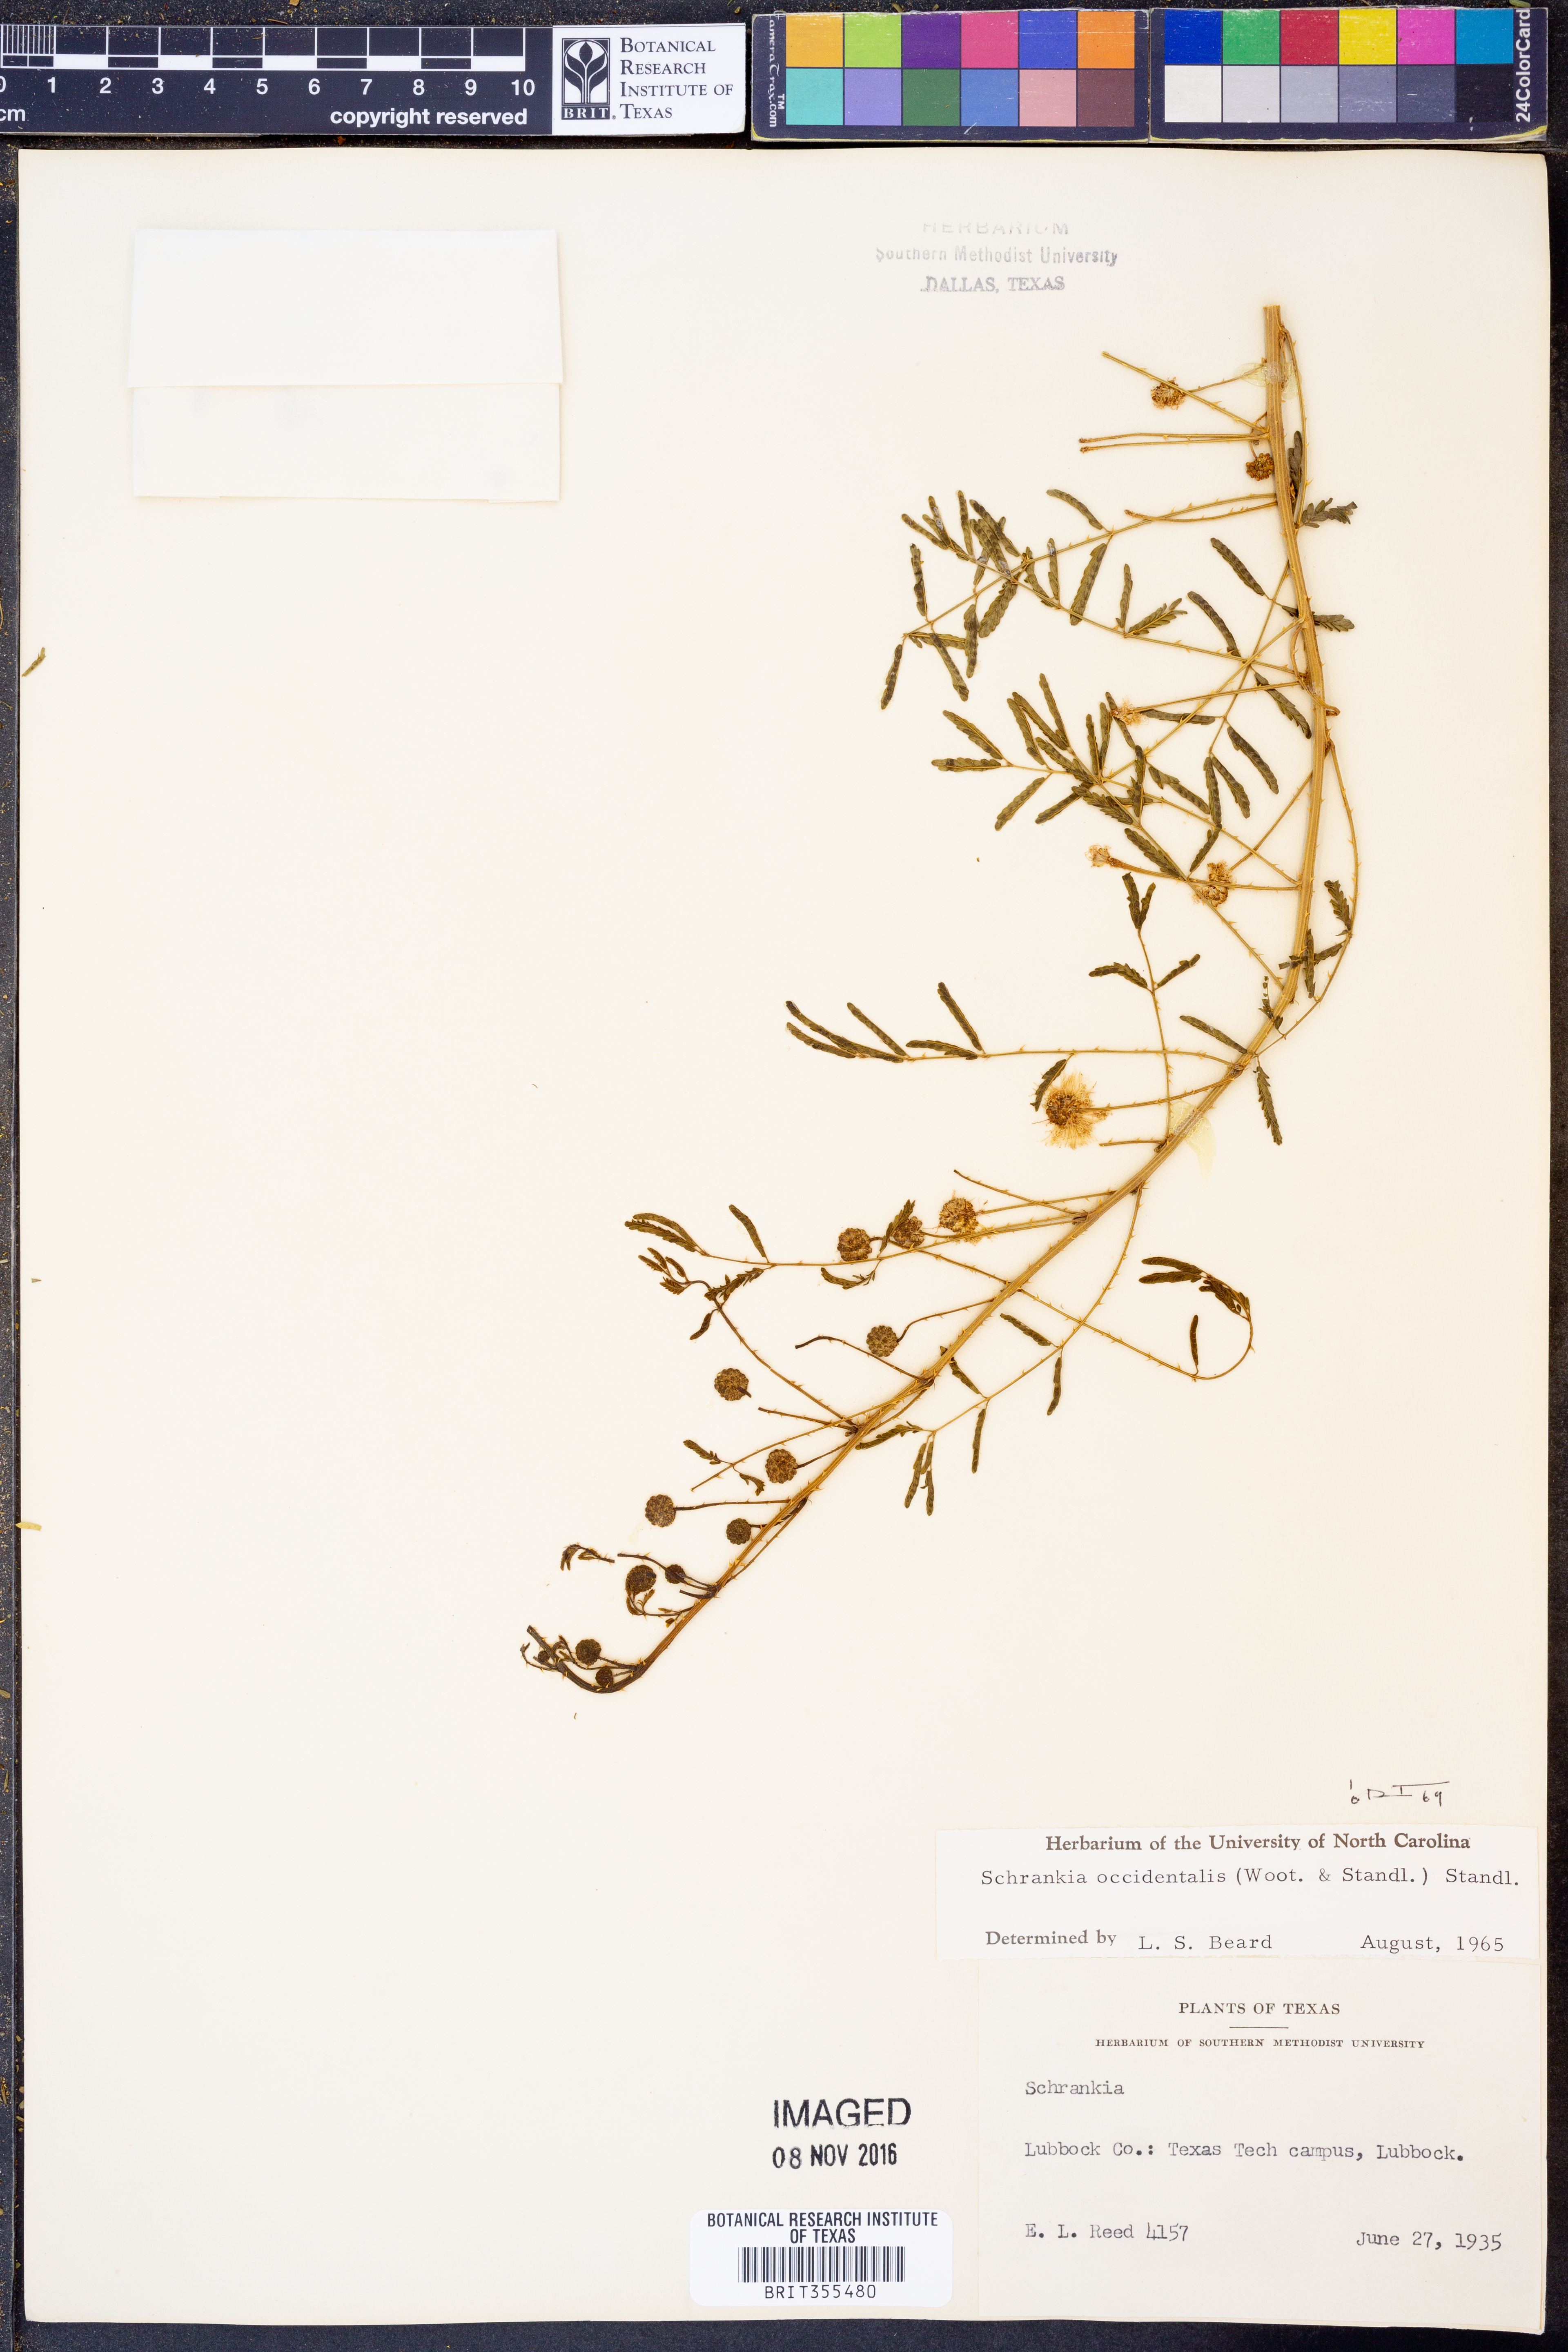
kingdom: Plantae
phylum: Tracheophyta
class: Magnoliopsida
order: Fabales
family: Fabaceae
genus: Mimosa
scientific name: Mimosa quadrivalvis
